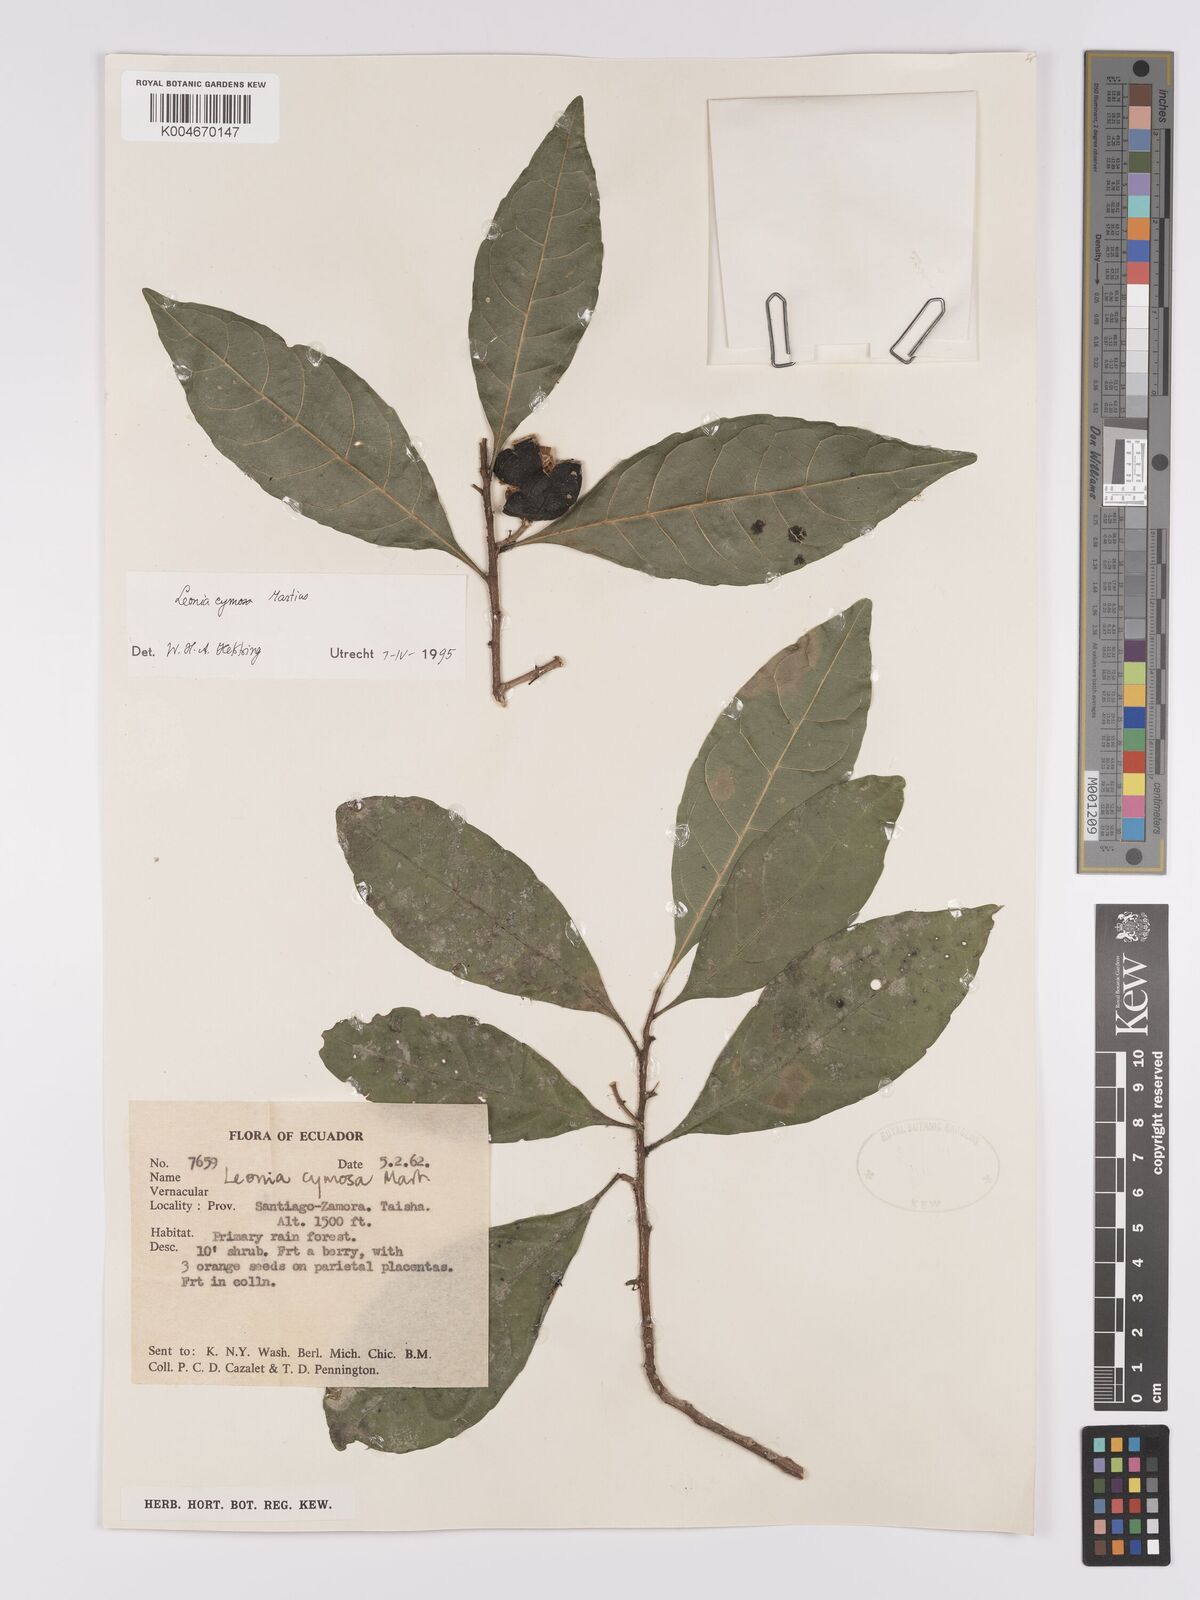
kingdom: Plantae
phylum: Tracheophyta
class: Magnoliopsida
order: Malpighiales
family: Violaceae
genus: Leonia
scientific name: Leonia cymosa
